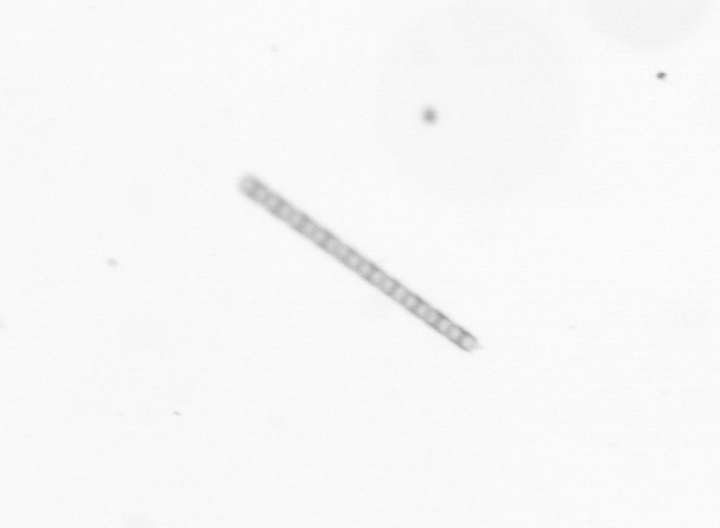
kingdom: Chromista
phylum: Ochrophyta
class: Bacillariophyceae
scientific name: Bacillariophyceae
